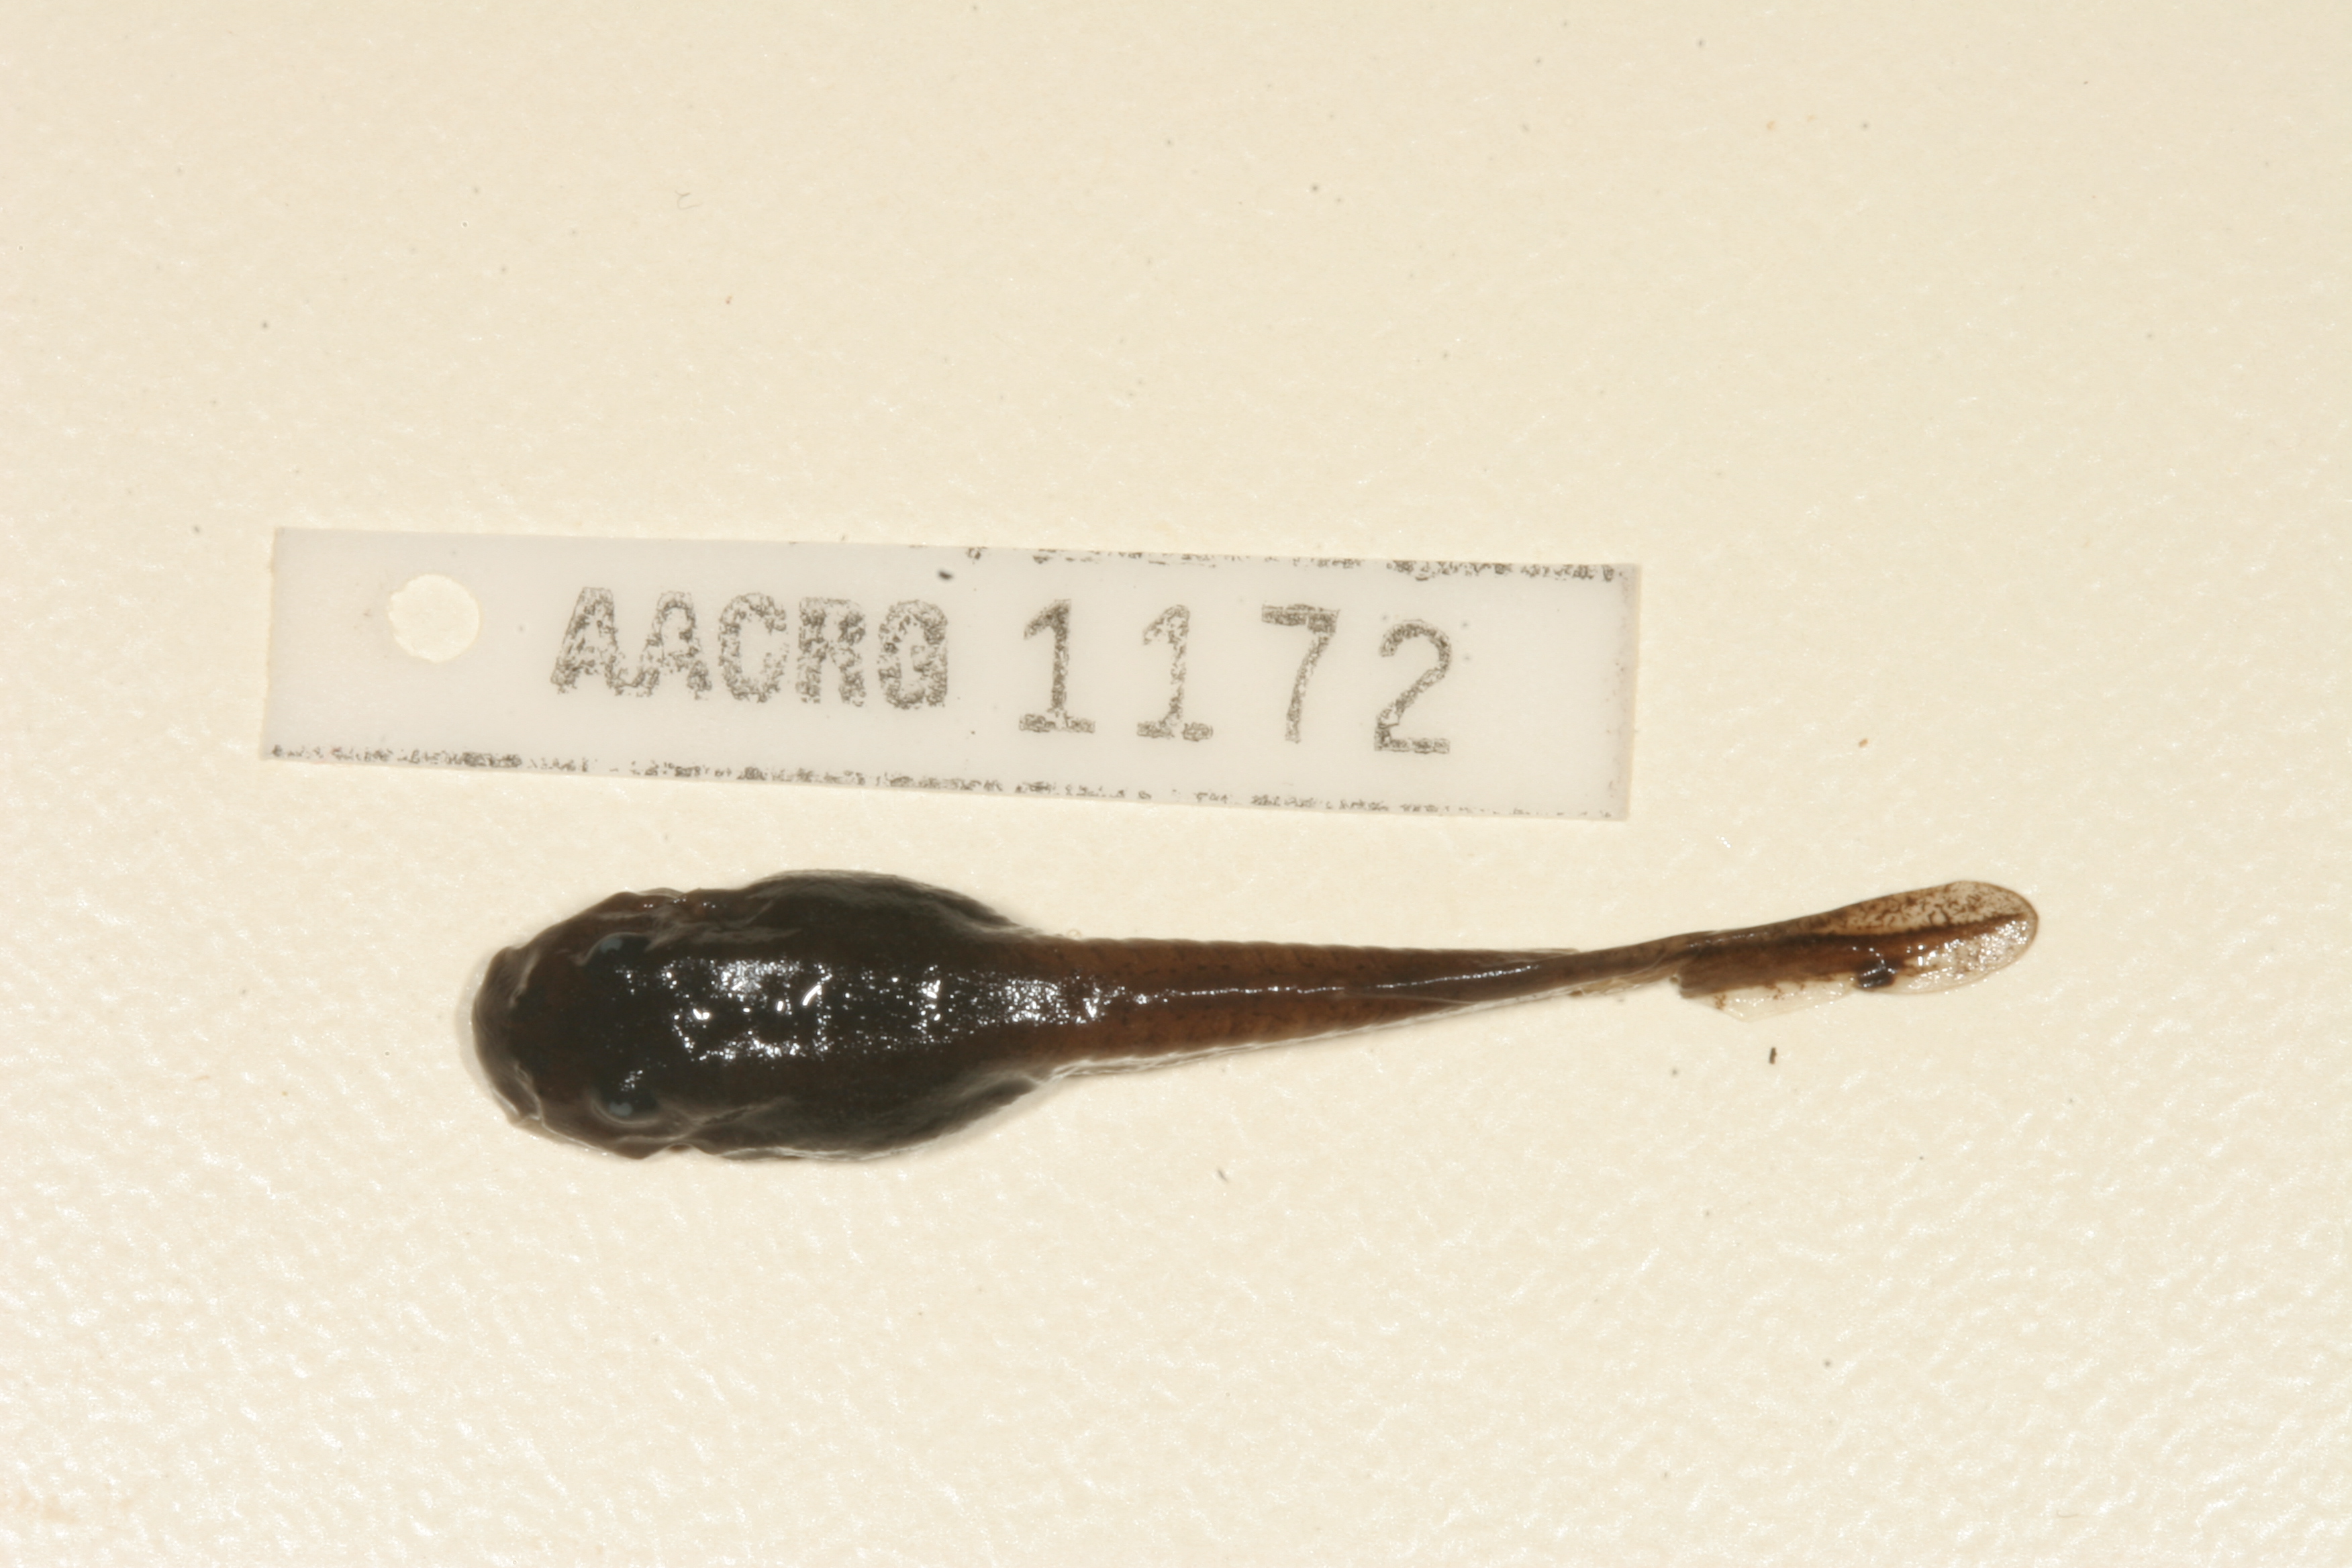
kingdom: Animalia
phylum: Chordata
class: Amphibia
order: Anura
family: Pyxicephalidae
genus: Amietia
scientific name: Amietia vertebralis
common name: Drakensberg stream frog
